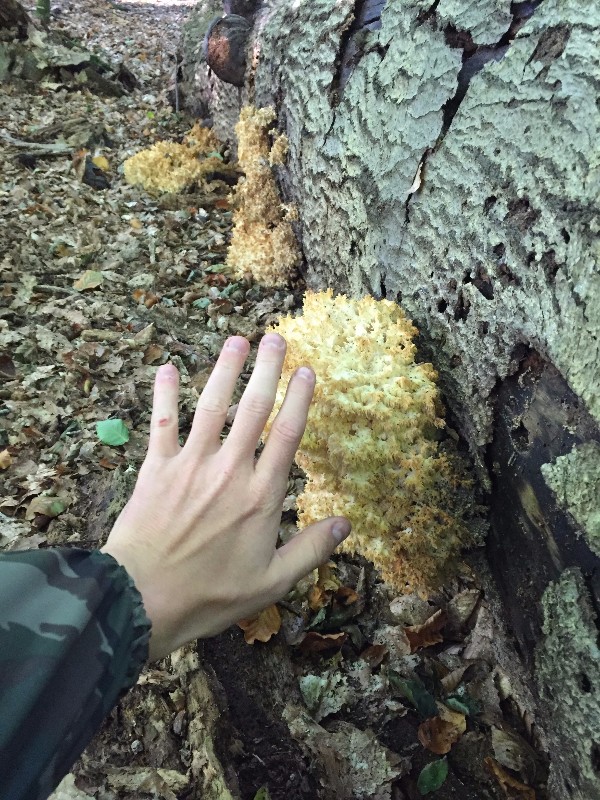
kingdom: Fungi
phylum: Basidiomycota
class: Agaricomycetes
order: Russulales
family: Hericiaceae
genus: Hericium
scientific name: Hericium coralloides
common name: koralpigsvamp
